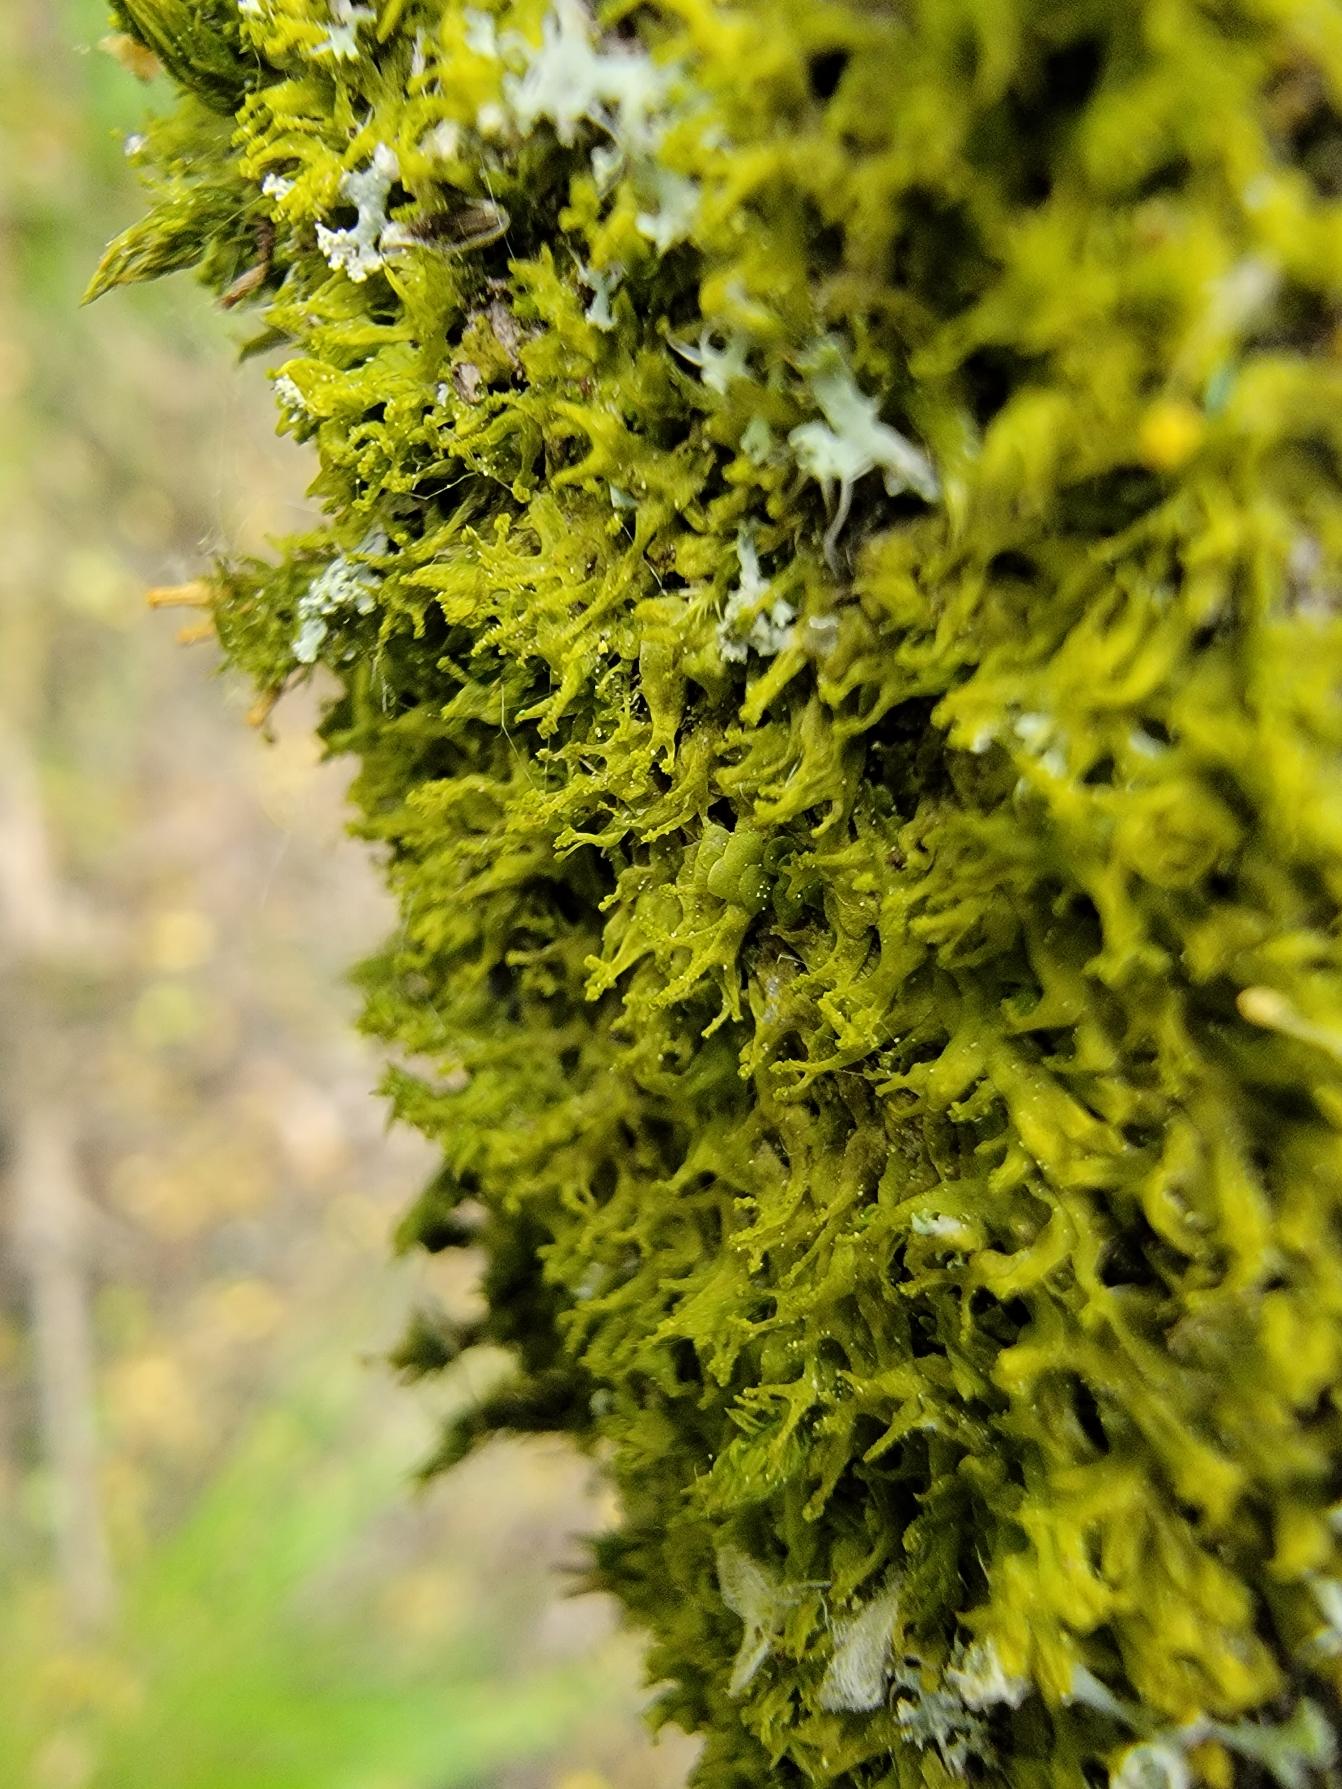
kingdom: Plantae
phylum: Marchantiophyta
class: Jungermanniopsida
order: Metzgeriales
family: Aneuraceae
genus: Riccardia
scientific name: Riccardia palmata
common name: Blågrøn gaffelløv
